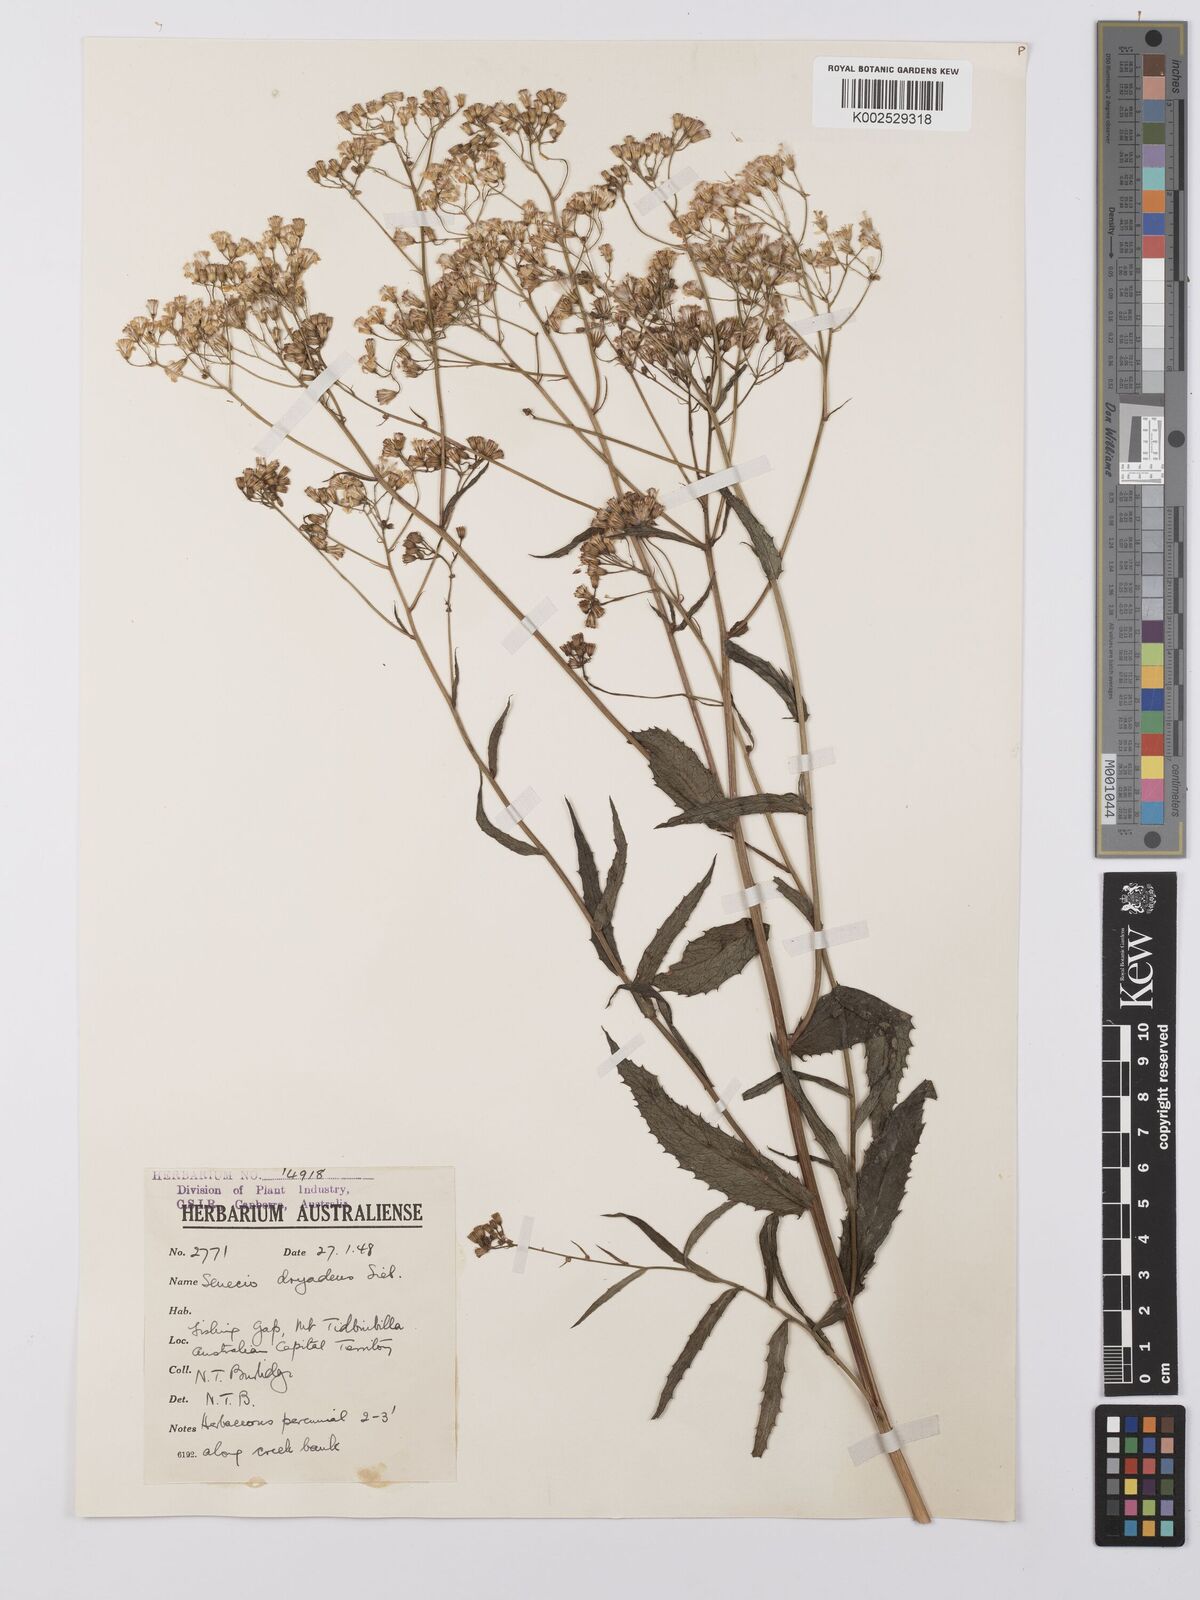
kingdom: Plantae
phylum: Tracheophyta
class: Magnoliopsida
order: Asterales
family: Asteraceae
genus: Senecio
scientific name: Senecio linearifolius
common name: Fireweed groundsel
